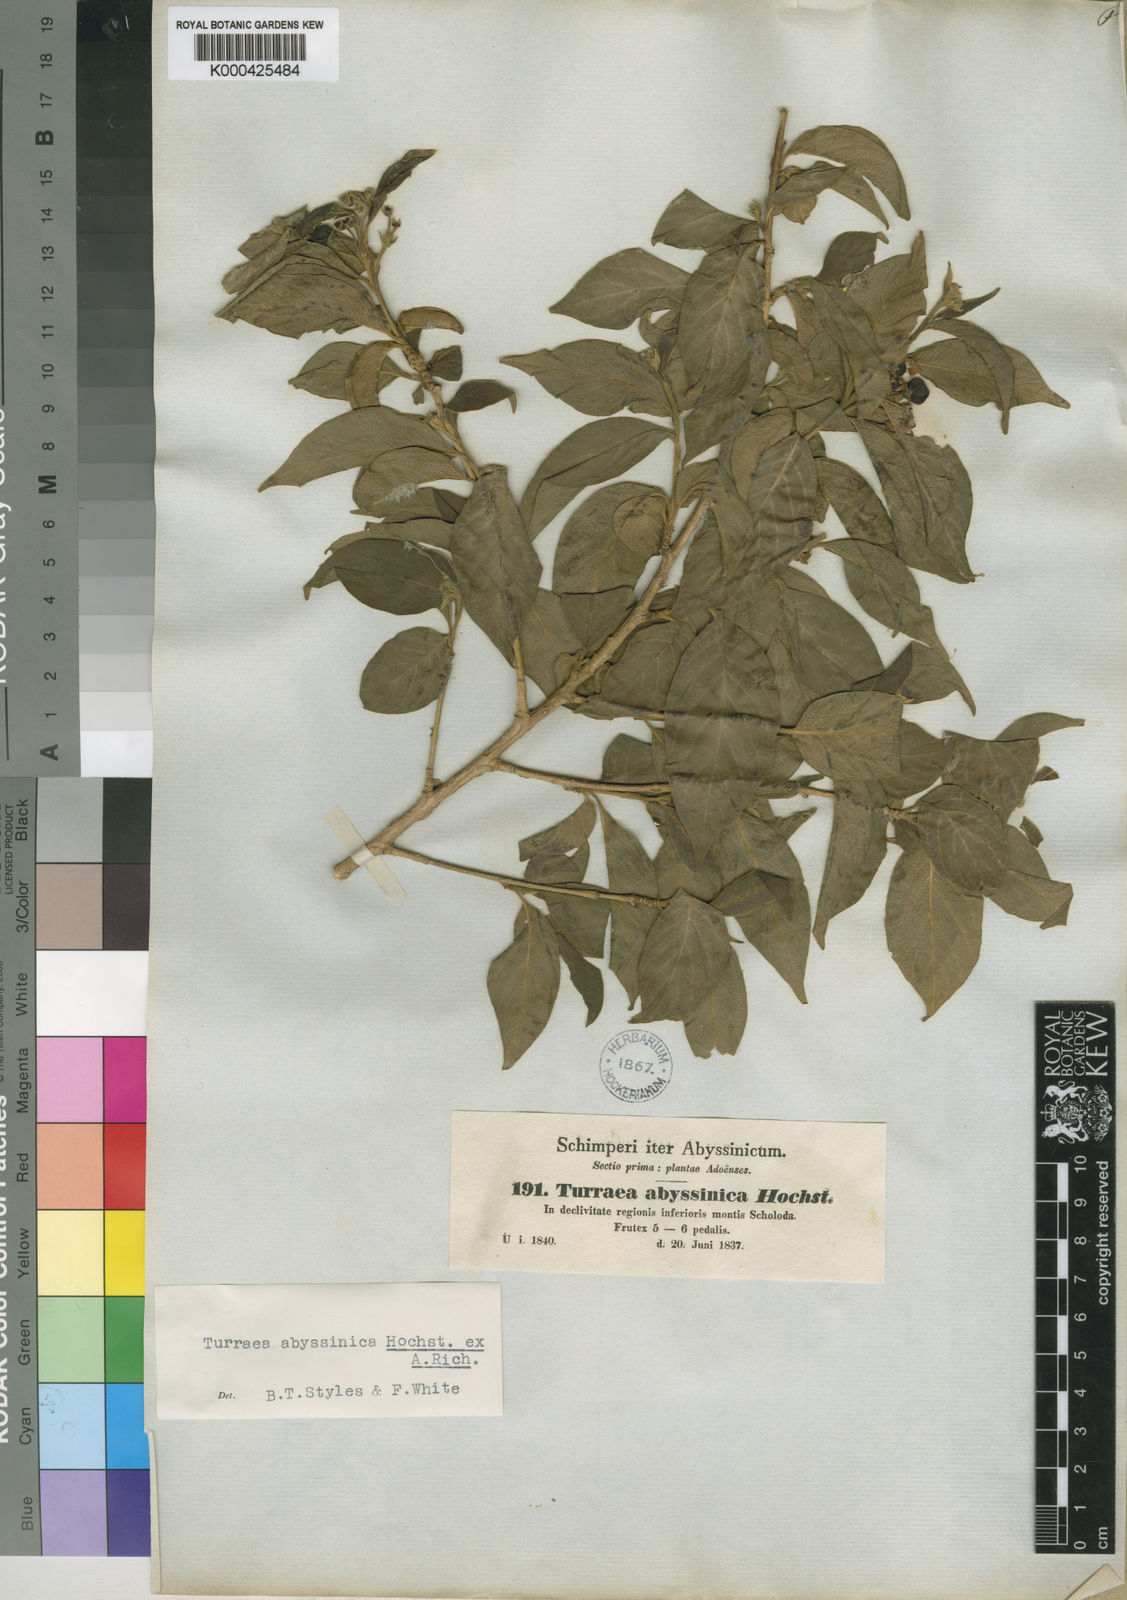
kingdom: Plantae
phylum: Tracheophyta
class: Magnoliopsida
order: Sapindales
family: Meliaceae
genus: Turraea
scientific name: Turraea
